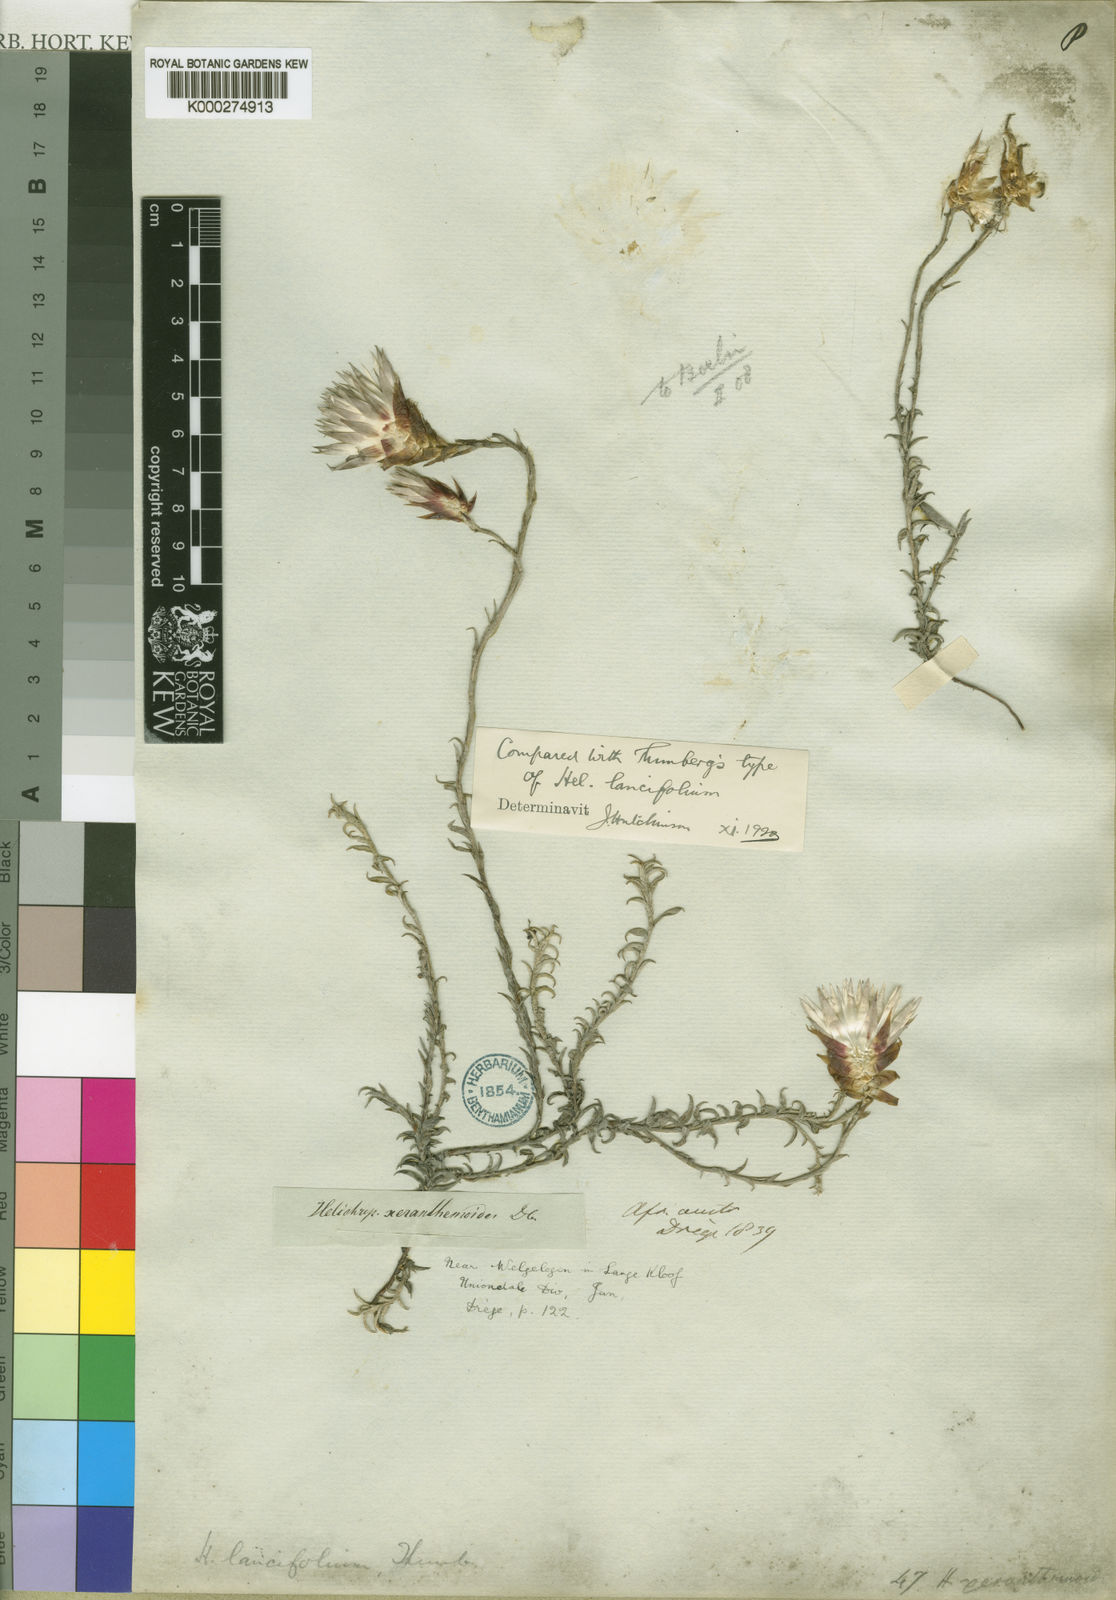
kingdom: Plantae
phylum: Tracheophyta
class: Magnoliopsida
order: Asterales
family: Asteraceae
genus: Helichrysum
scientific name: Helichrysum
